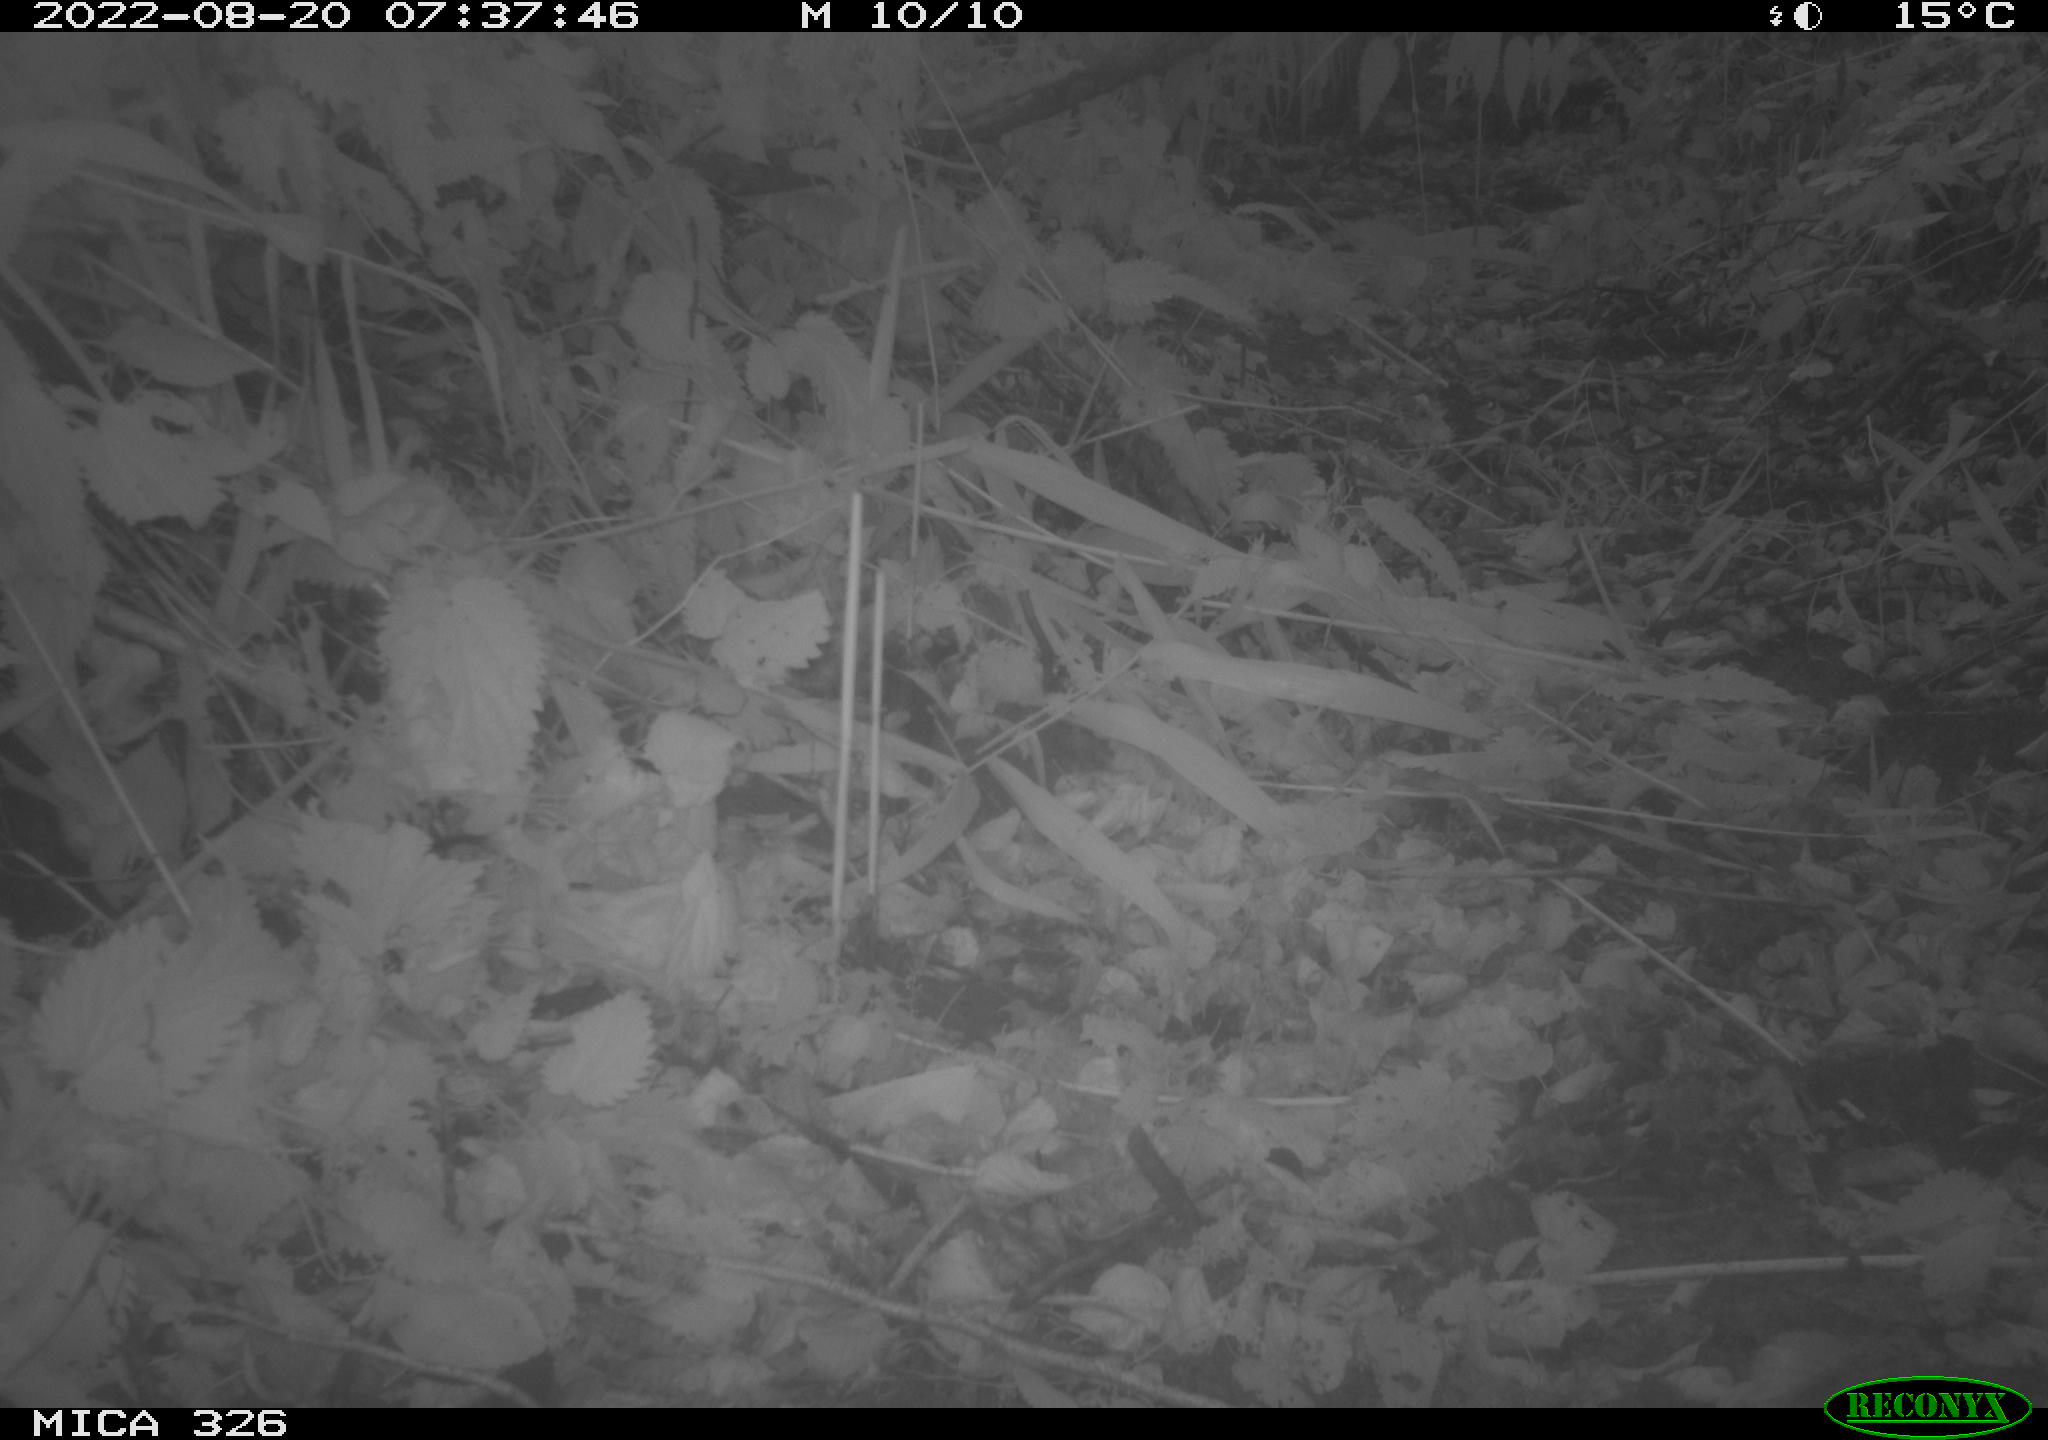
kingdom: Animalia
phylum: Chordata
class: Mammalia
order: Carnivora
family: Canidae
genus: Canis
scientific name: Canis lupus
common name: Gray wolf
